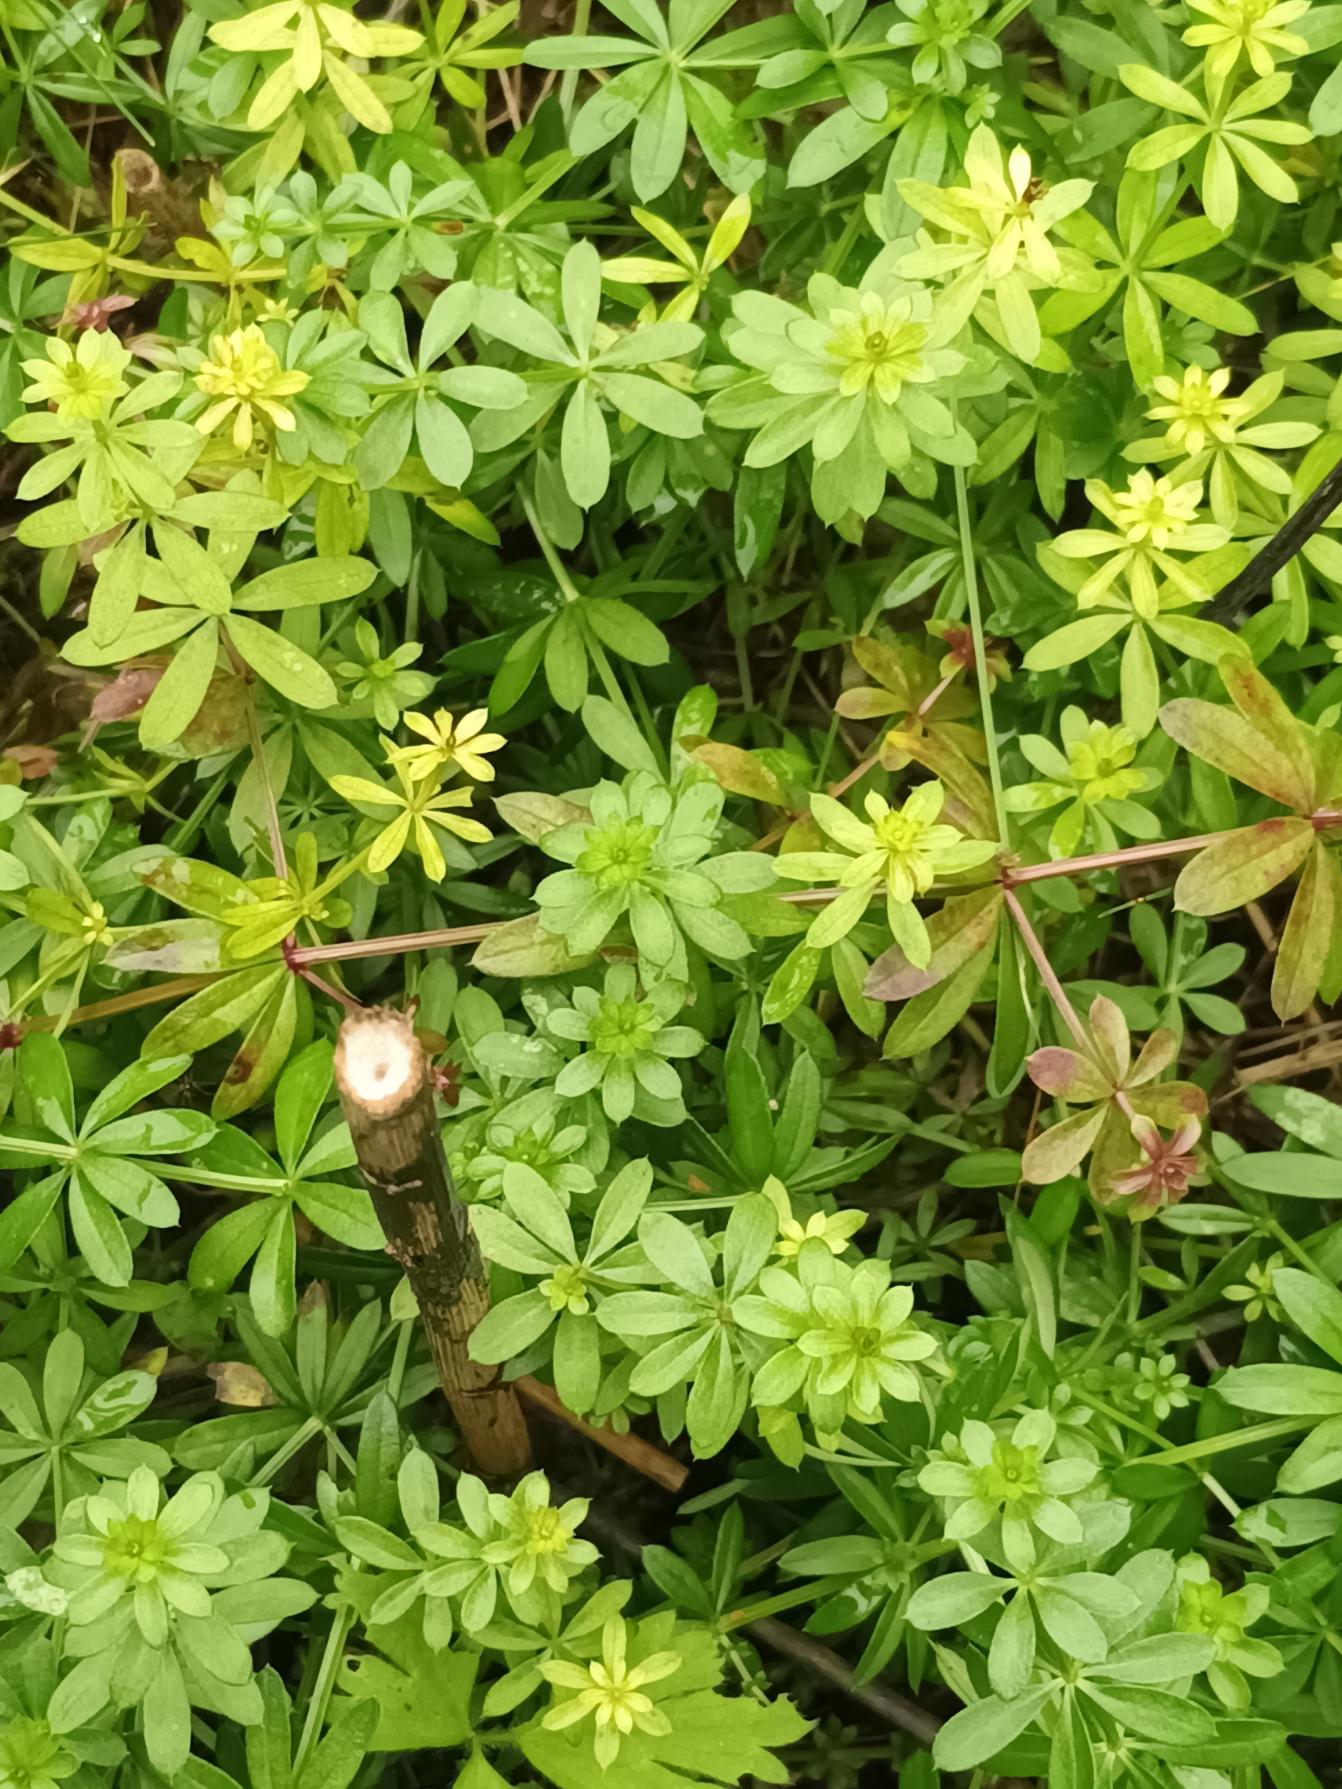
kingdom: Plantae
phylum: Tracheophyta
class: Magnoliopsida
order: Gentianales
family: Rubiaceae
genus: Galium
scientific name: Galium mollugo
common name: Hvid snerre
